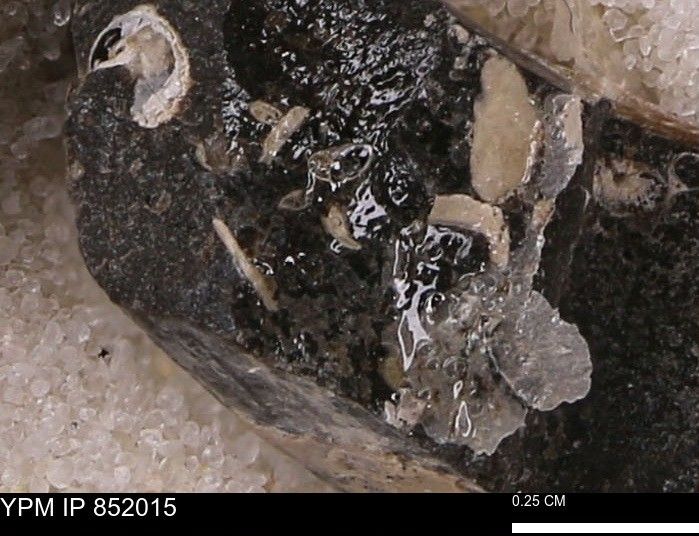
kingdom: Chromista
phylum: Foraminifera
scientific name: Foraminifera
